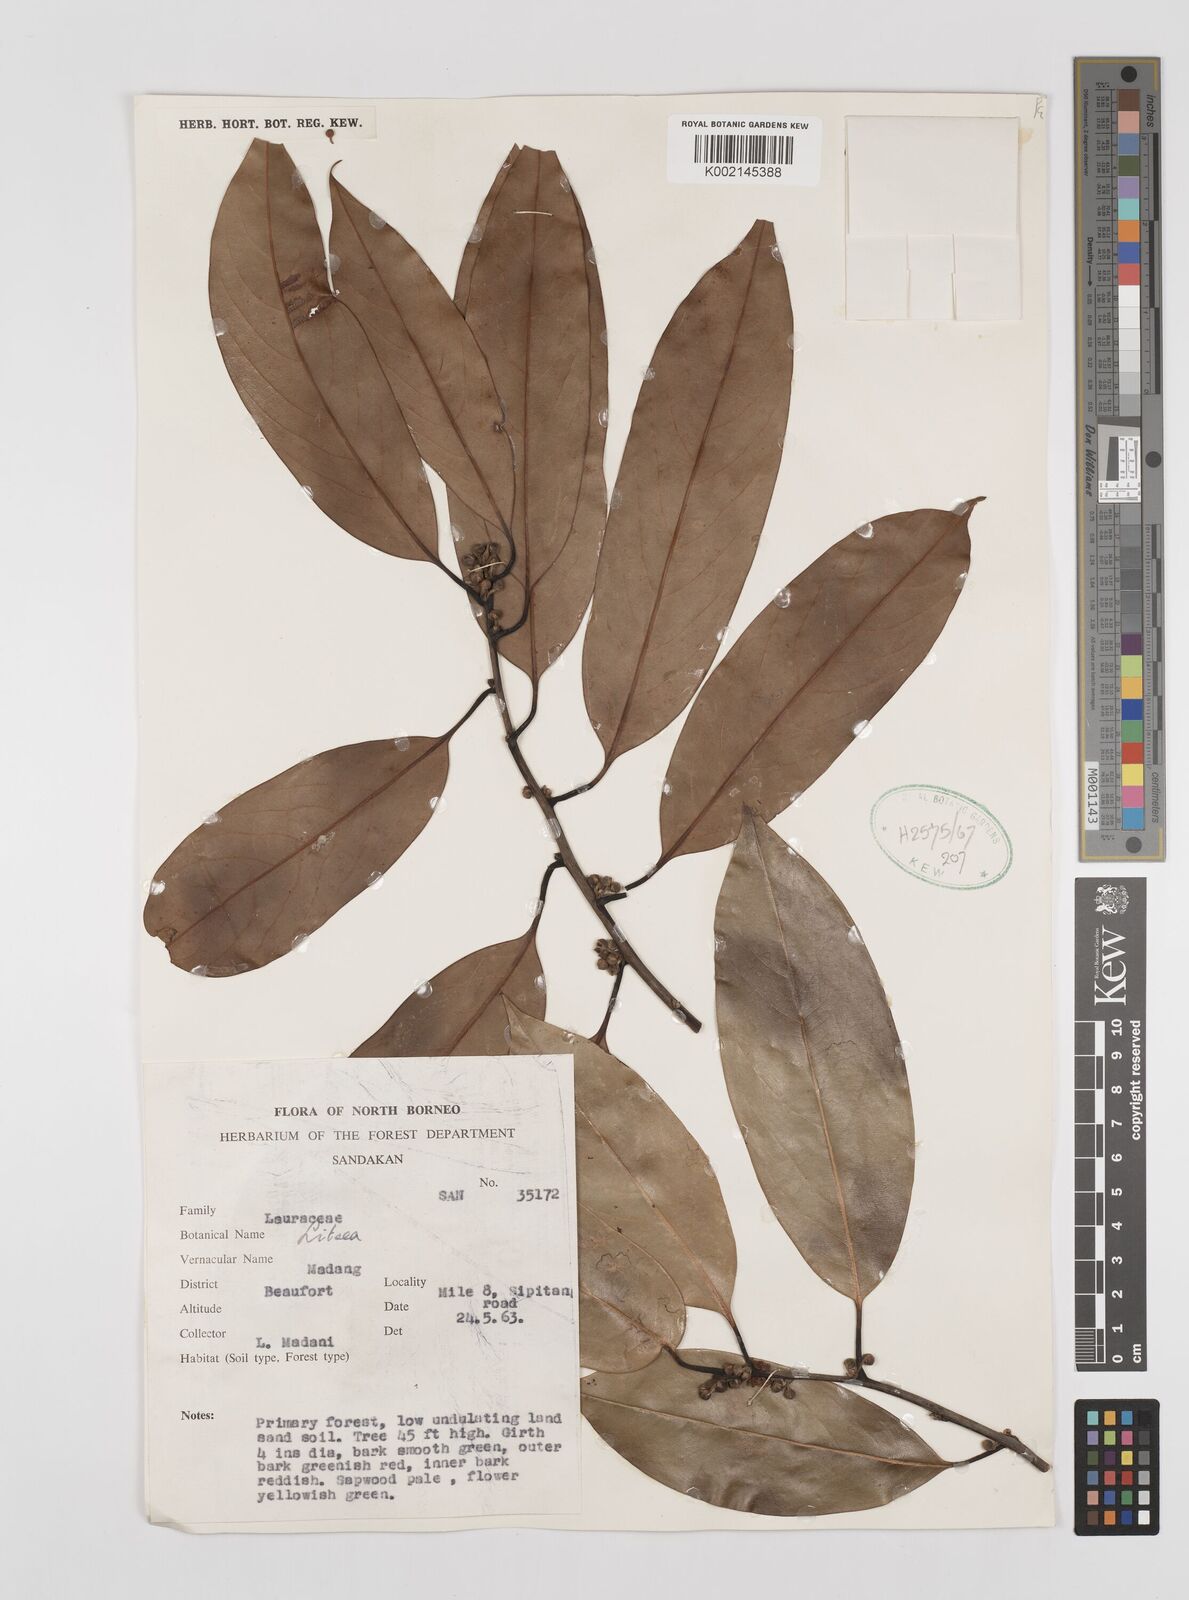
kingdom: Plantae
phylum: Tracheophyta
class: Magnoliopsida
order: Laurales
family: Lauraceae
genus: Litsea
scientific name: Litsea
